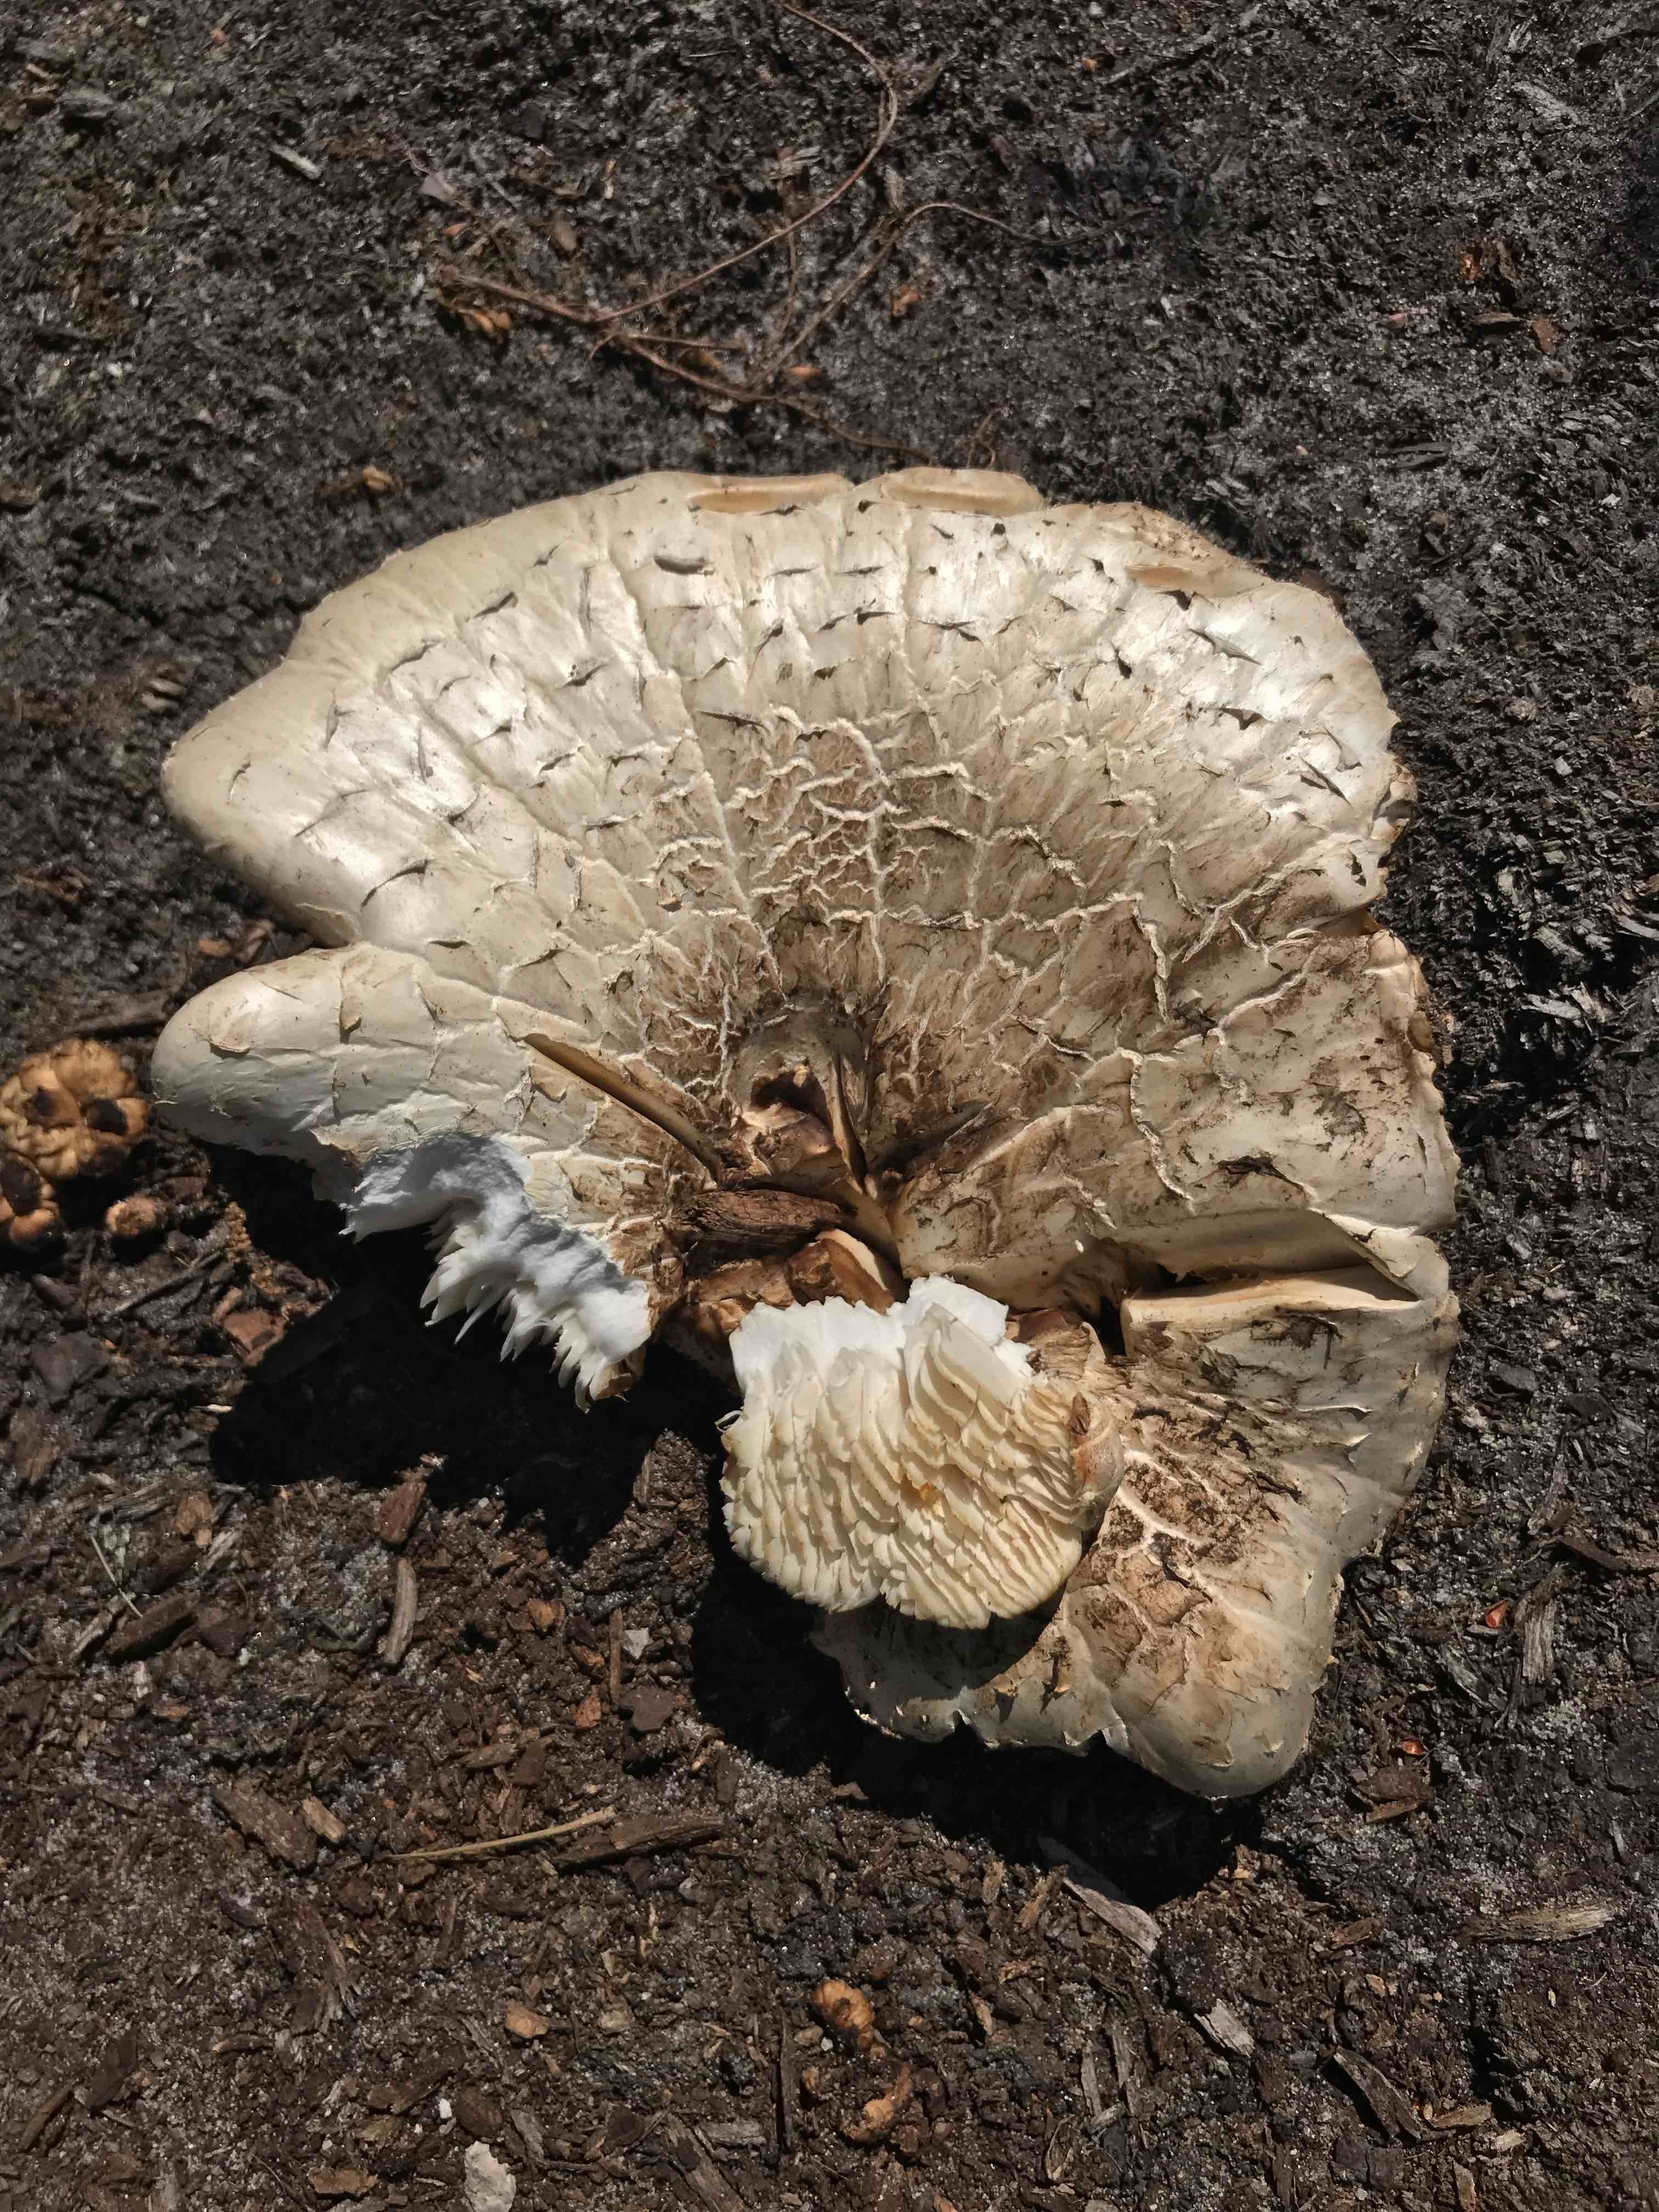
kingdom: Fungi
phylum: Basidiomycota
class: Agaricomycetes
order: Gloeophyllales
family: Gloeophyllaceae
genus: Neolentinus
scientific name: Neolentinus lepideus
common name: skællet sejhat
